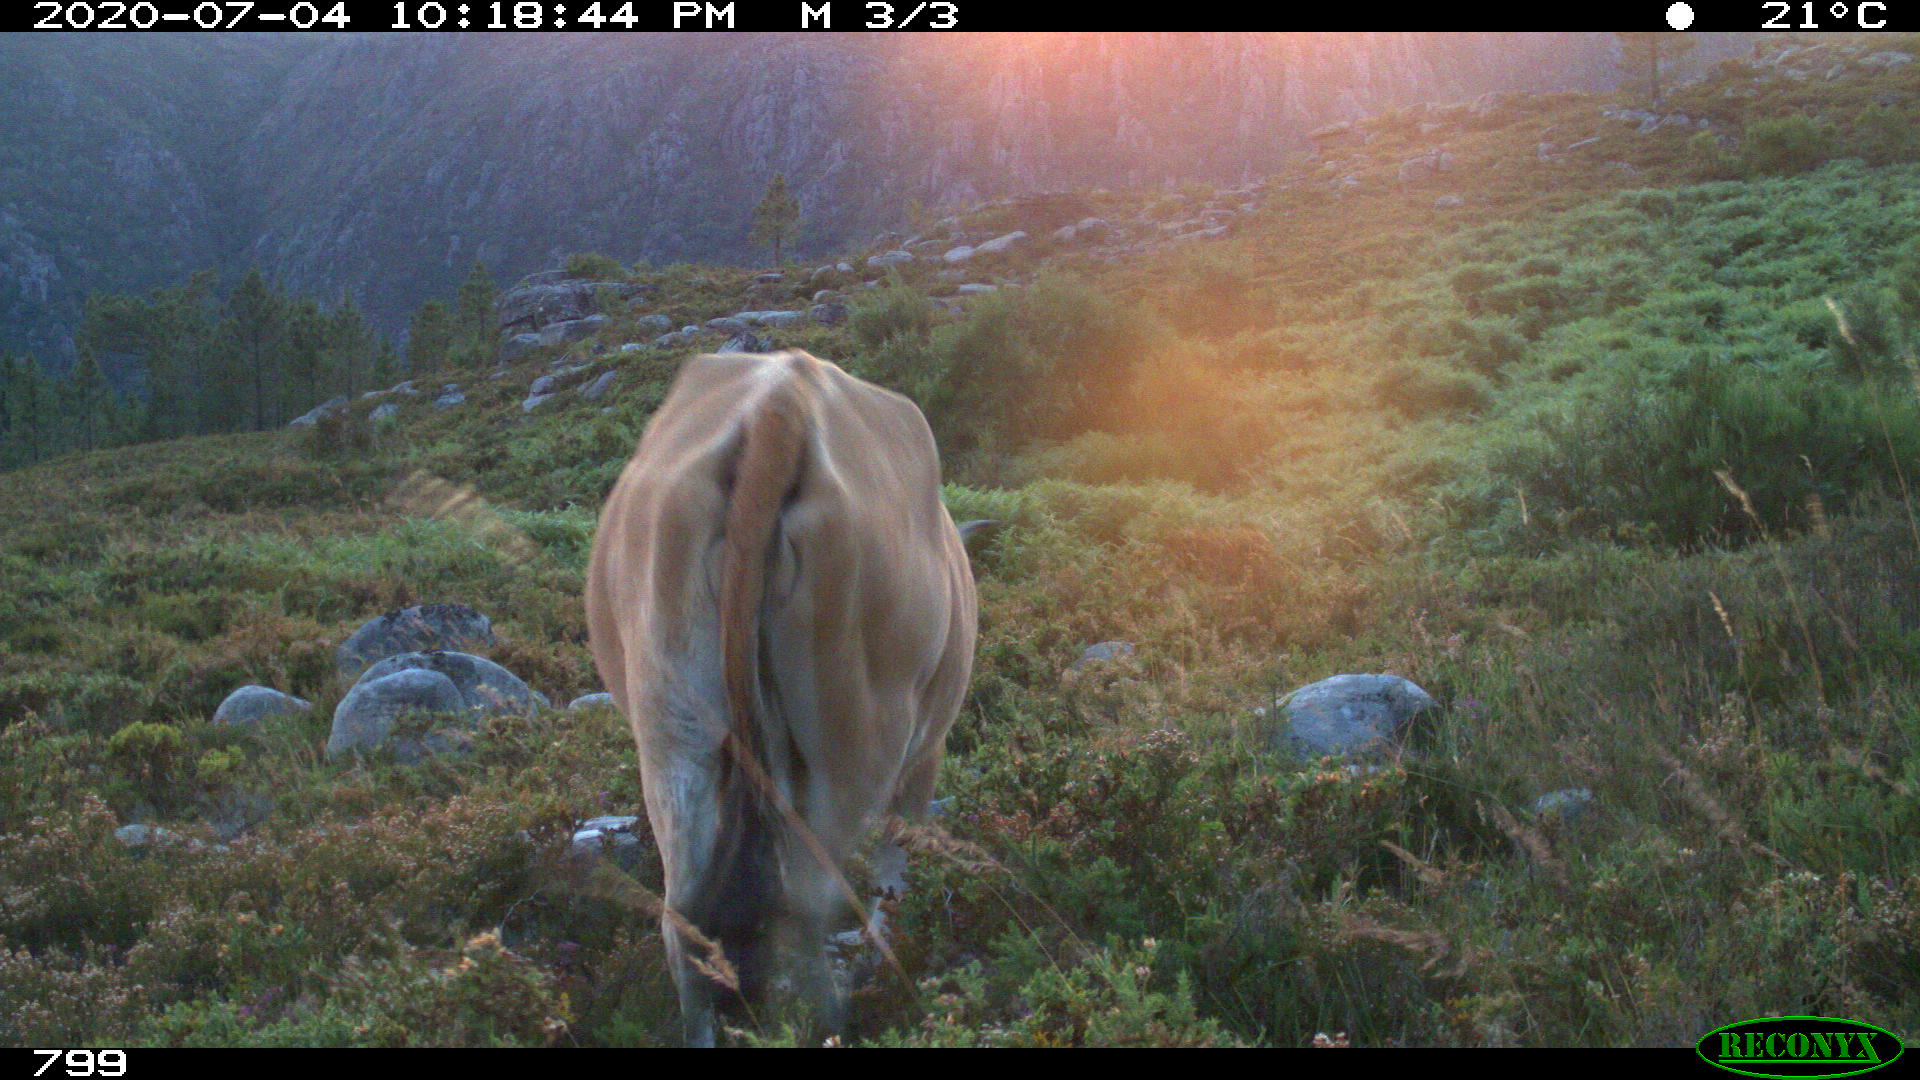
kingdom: Animalia
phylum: Chordata
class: Mammalia
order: Artiodactyla
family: Bovidae
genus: Bos
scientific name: Bos taurus
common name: Domesticated cattle
